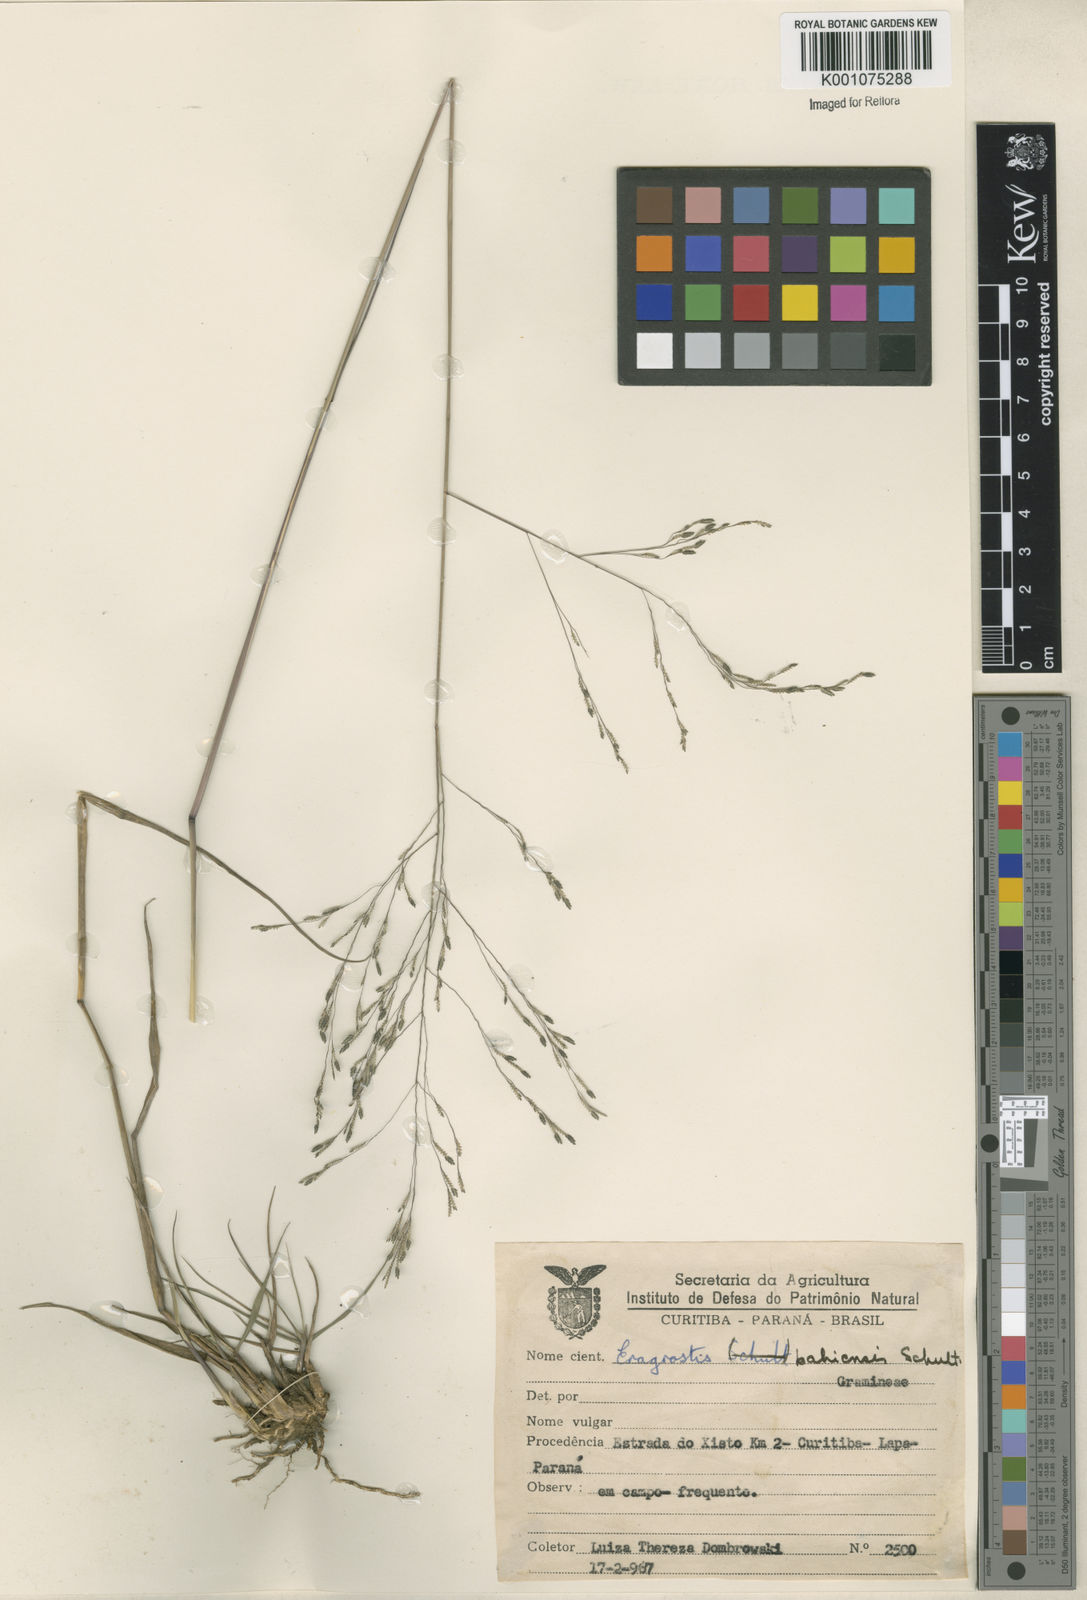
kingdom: Plantae
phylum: Tracheophyta
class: Liliopsida
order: Poales
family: Poaceae
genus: Eragrostis
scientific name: Eragrostis bahiensis
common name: Bahia lovegrass
